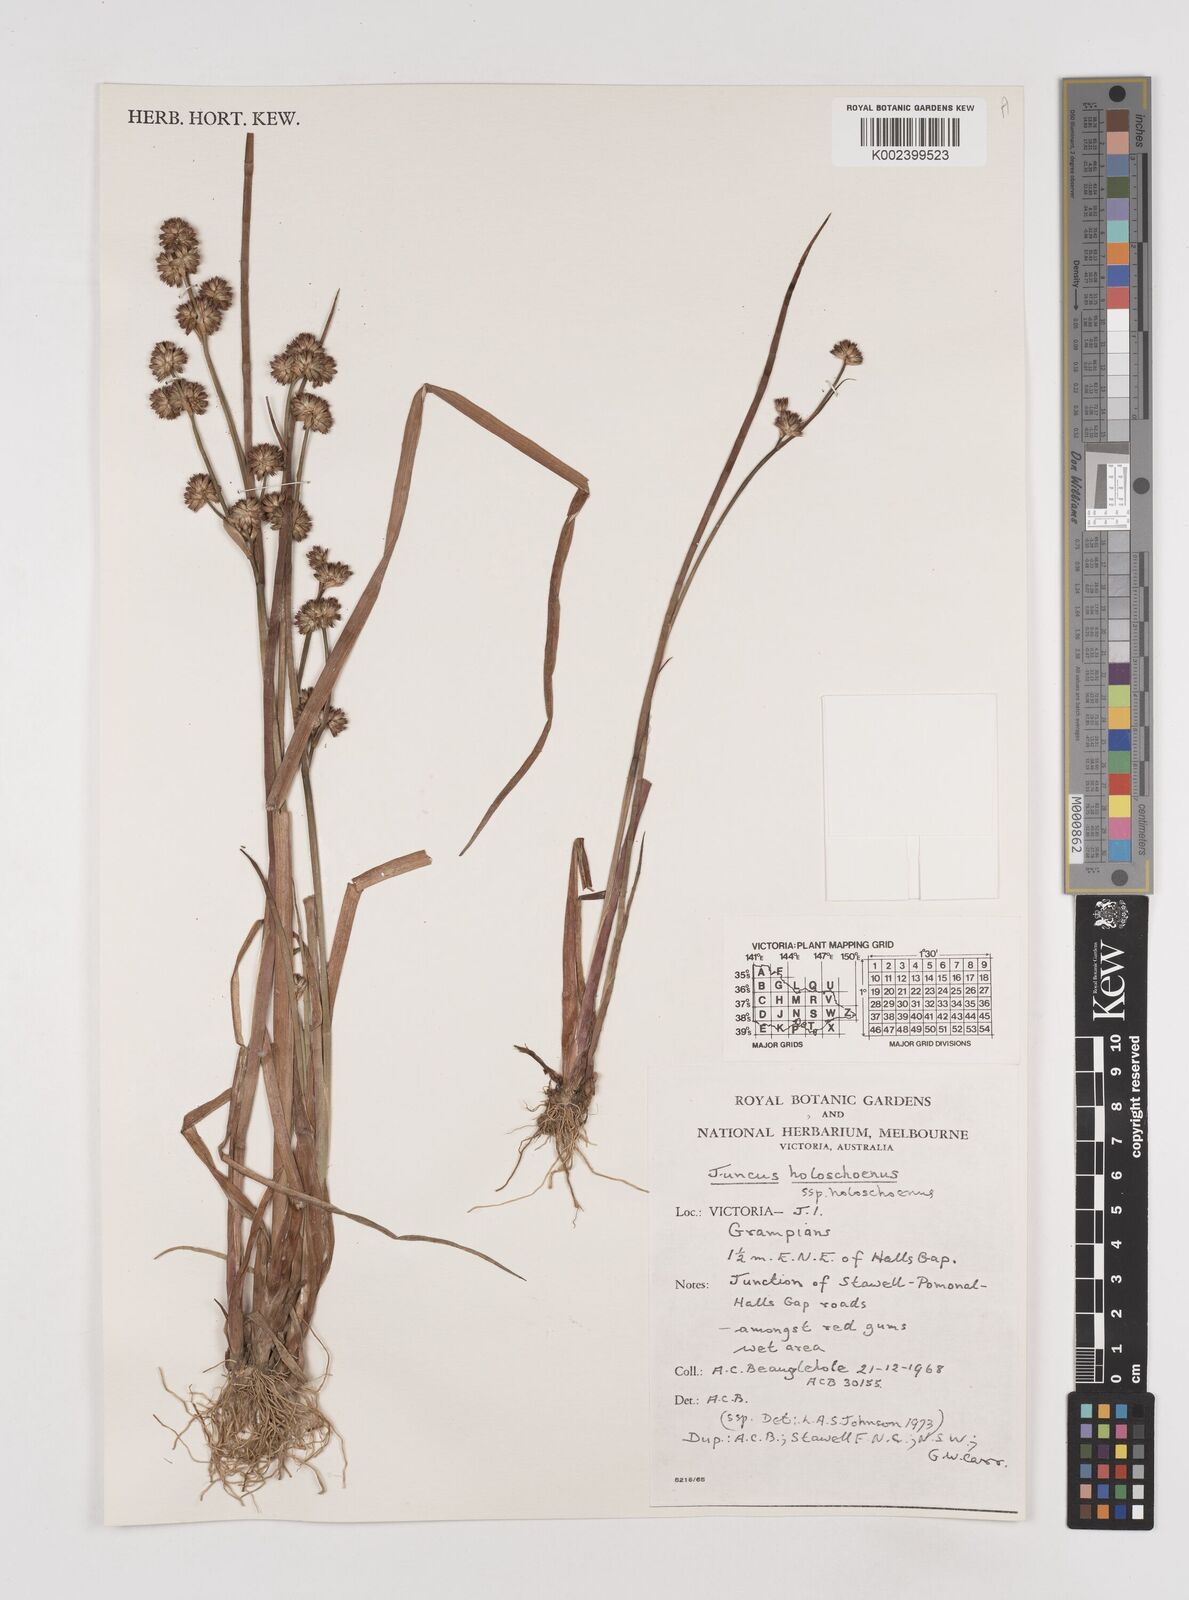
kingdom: Plantae
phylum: Tracheophyta
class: Liliopsida
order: Poales
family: Juncaceae
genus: Juncus
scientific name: Juncus holoschoenus
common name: Joint-leaf rush
